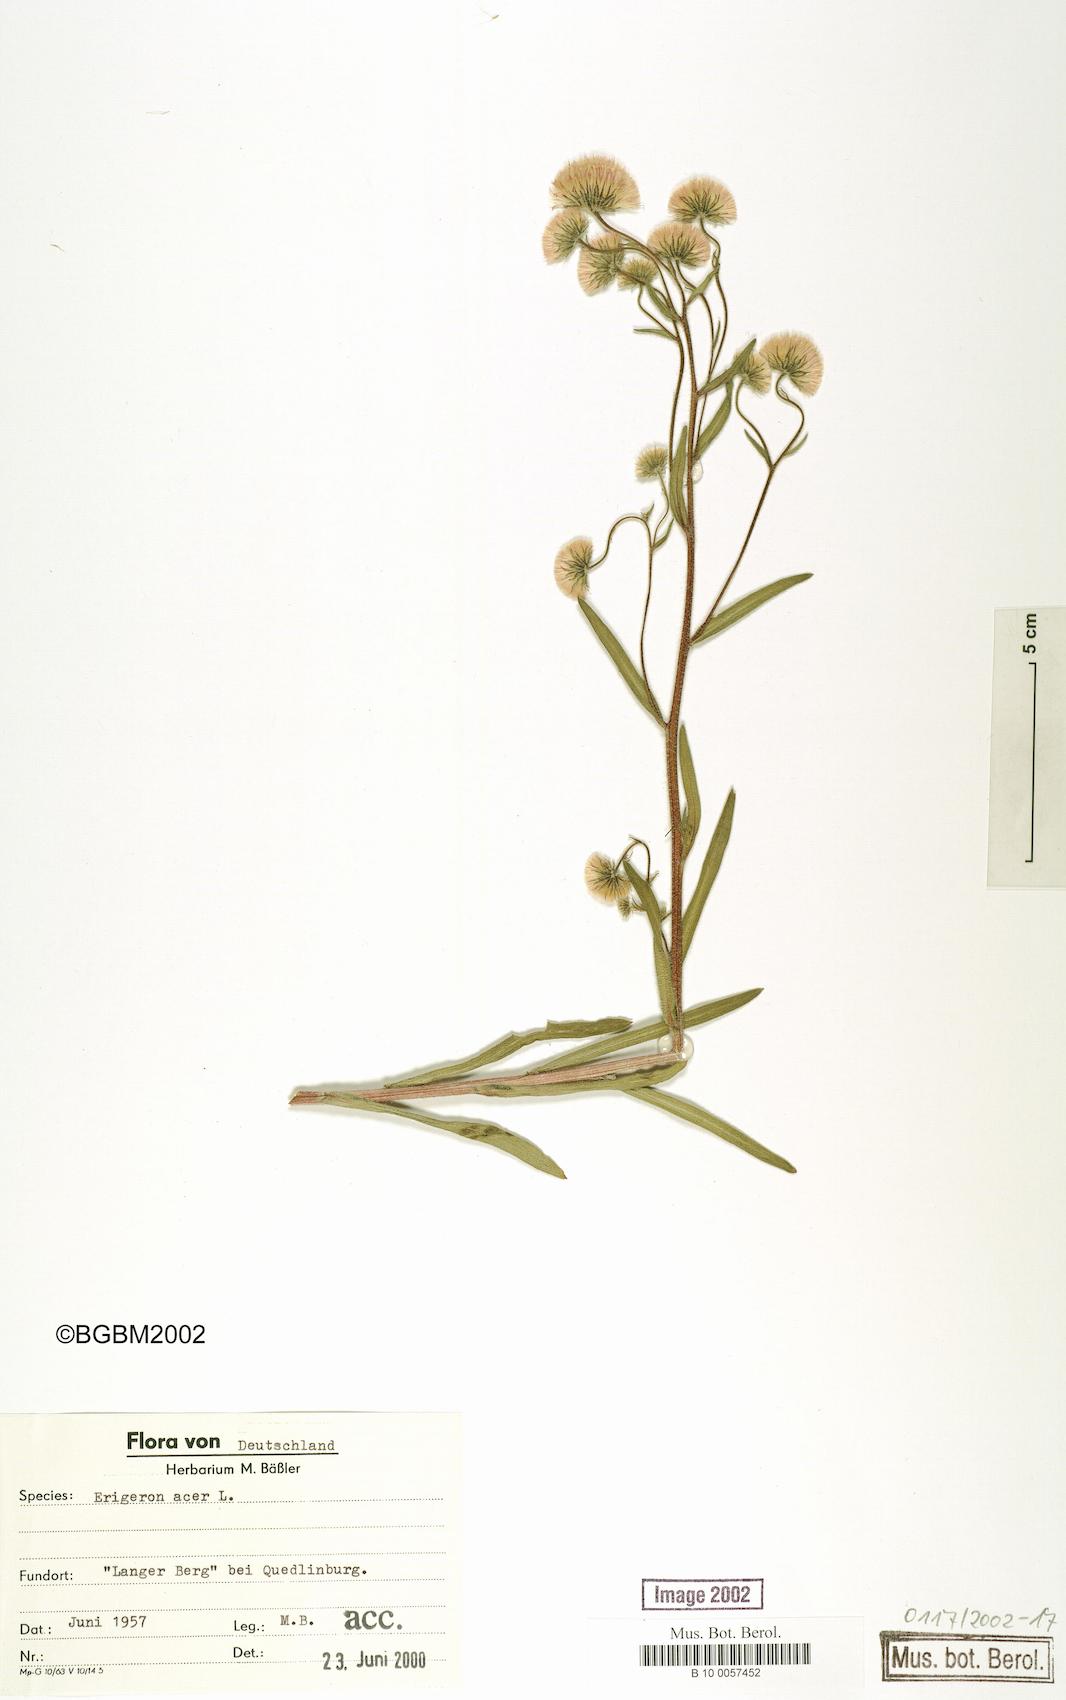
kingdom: Plantae
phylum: Tracheophyta
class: Magnoliopsida
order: Asterales
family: Asteraceae
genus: Erigeron
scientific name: Erigeron acris
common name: Blue fleabane
